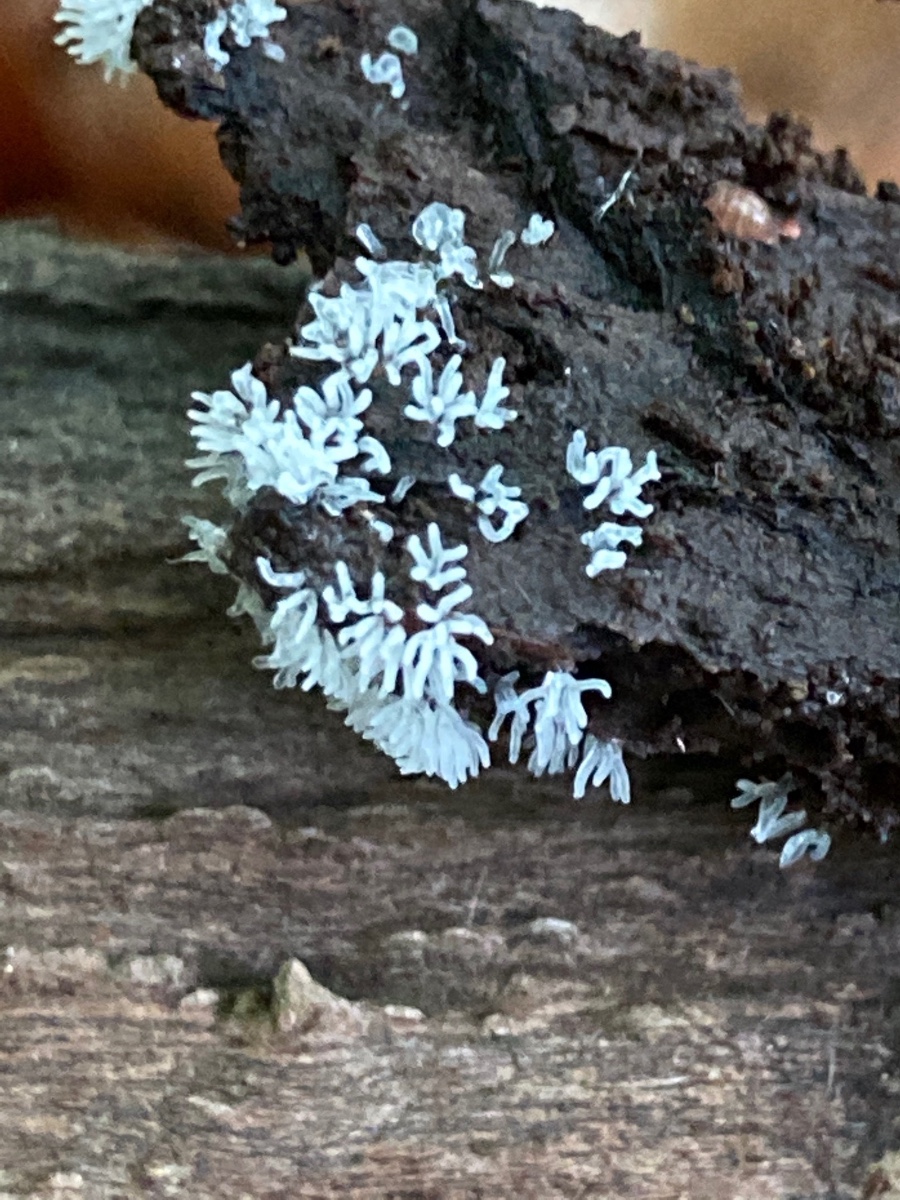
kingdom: Protozoa
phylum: Mycetozoa
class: Protosteliomycetes
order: Ceratiomyxales
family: Ceratiomyxaceae
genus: Ceratiomyxa
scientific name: Ceratiomyxa fruticulosa
